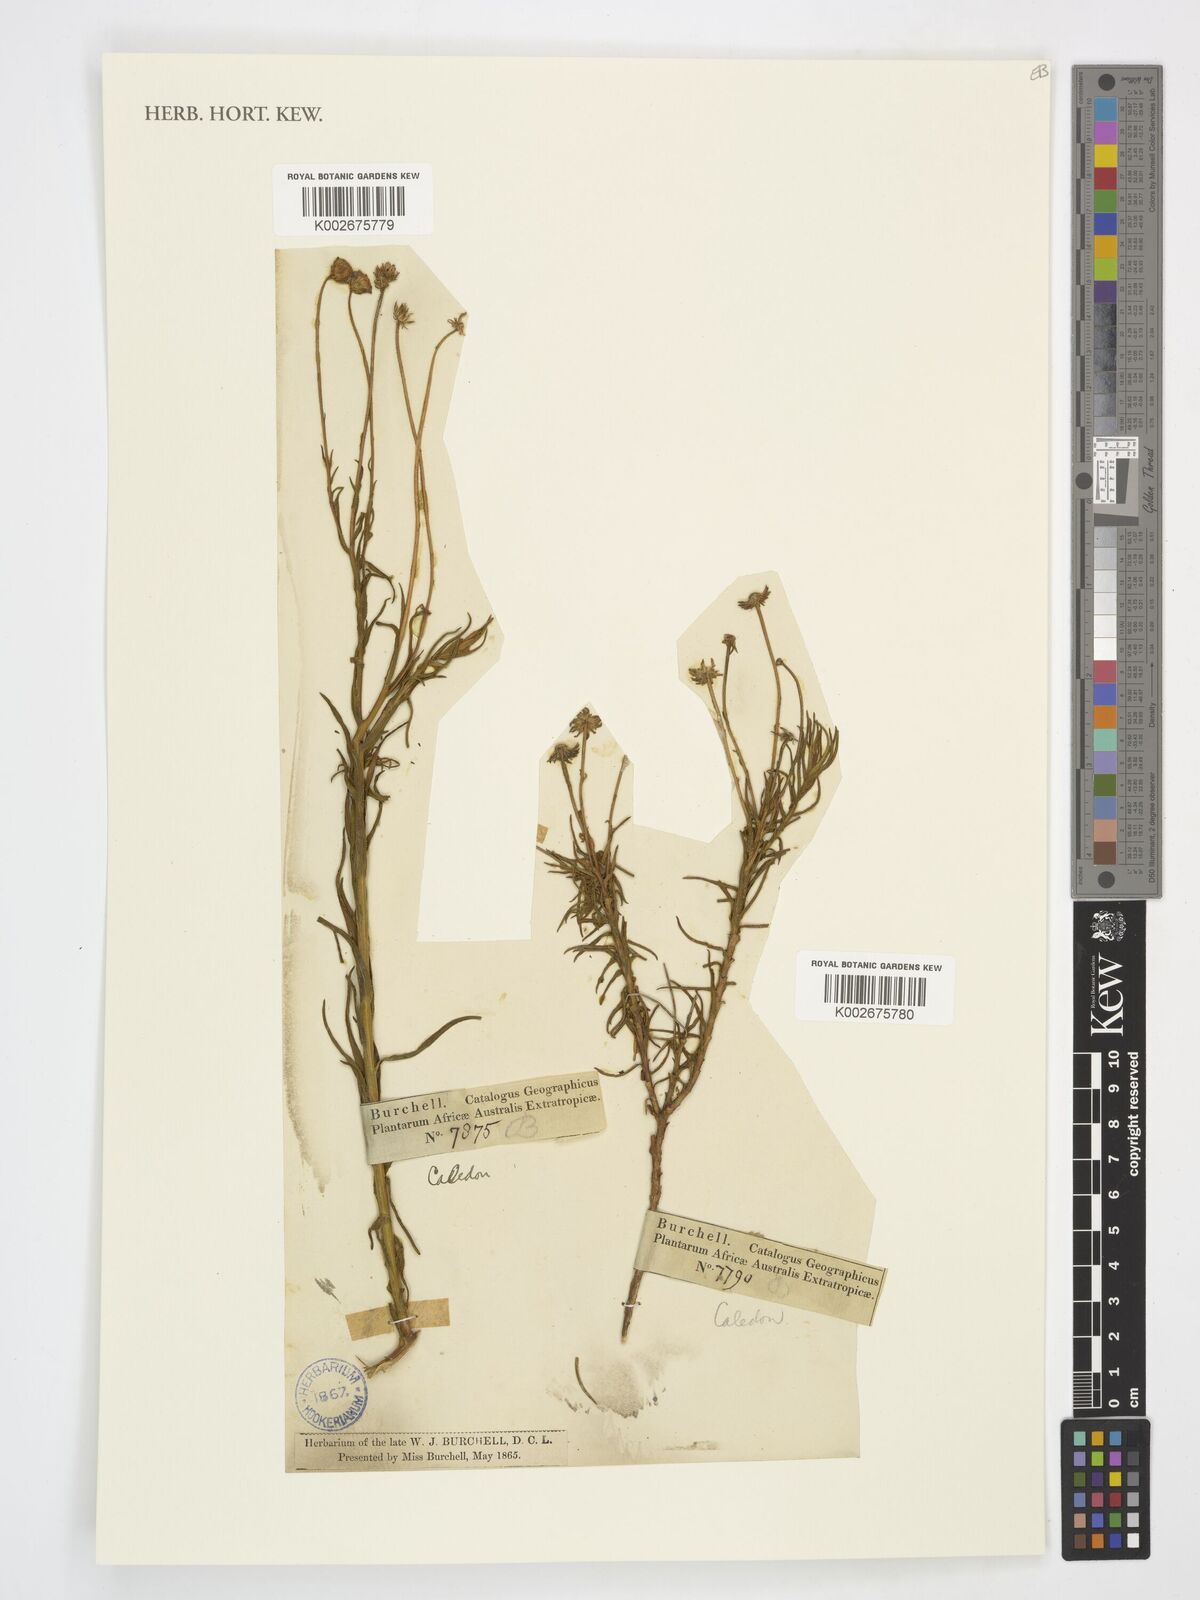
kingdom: Plantae
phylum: Tracheophyta
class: Magnoliopsida
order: Asterales
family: Asteraceae
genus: Zyrphelis
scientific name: Zyrphelis
